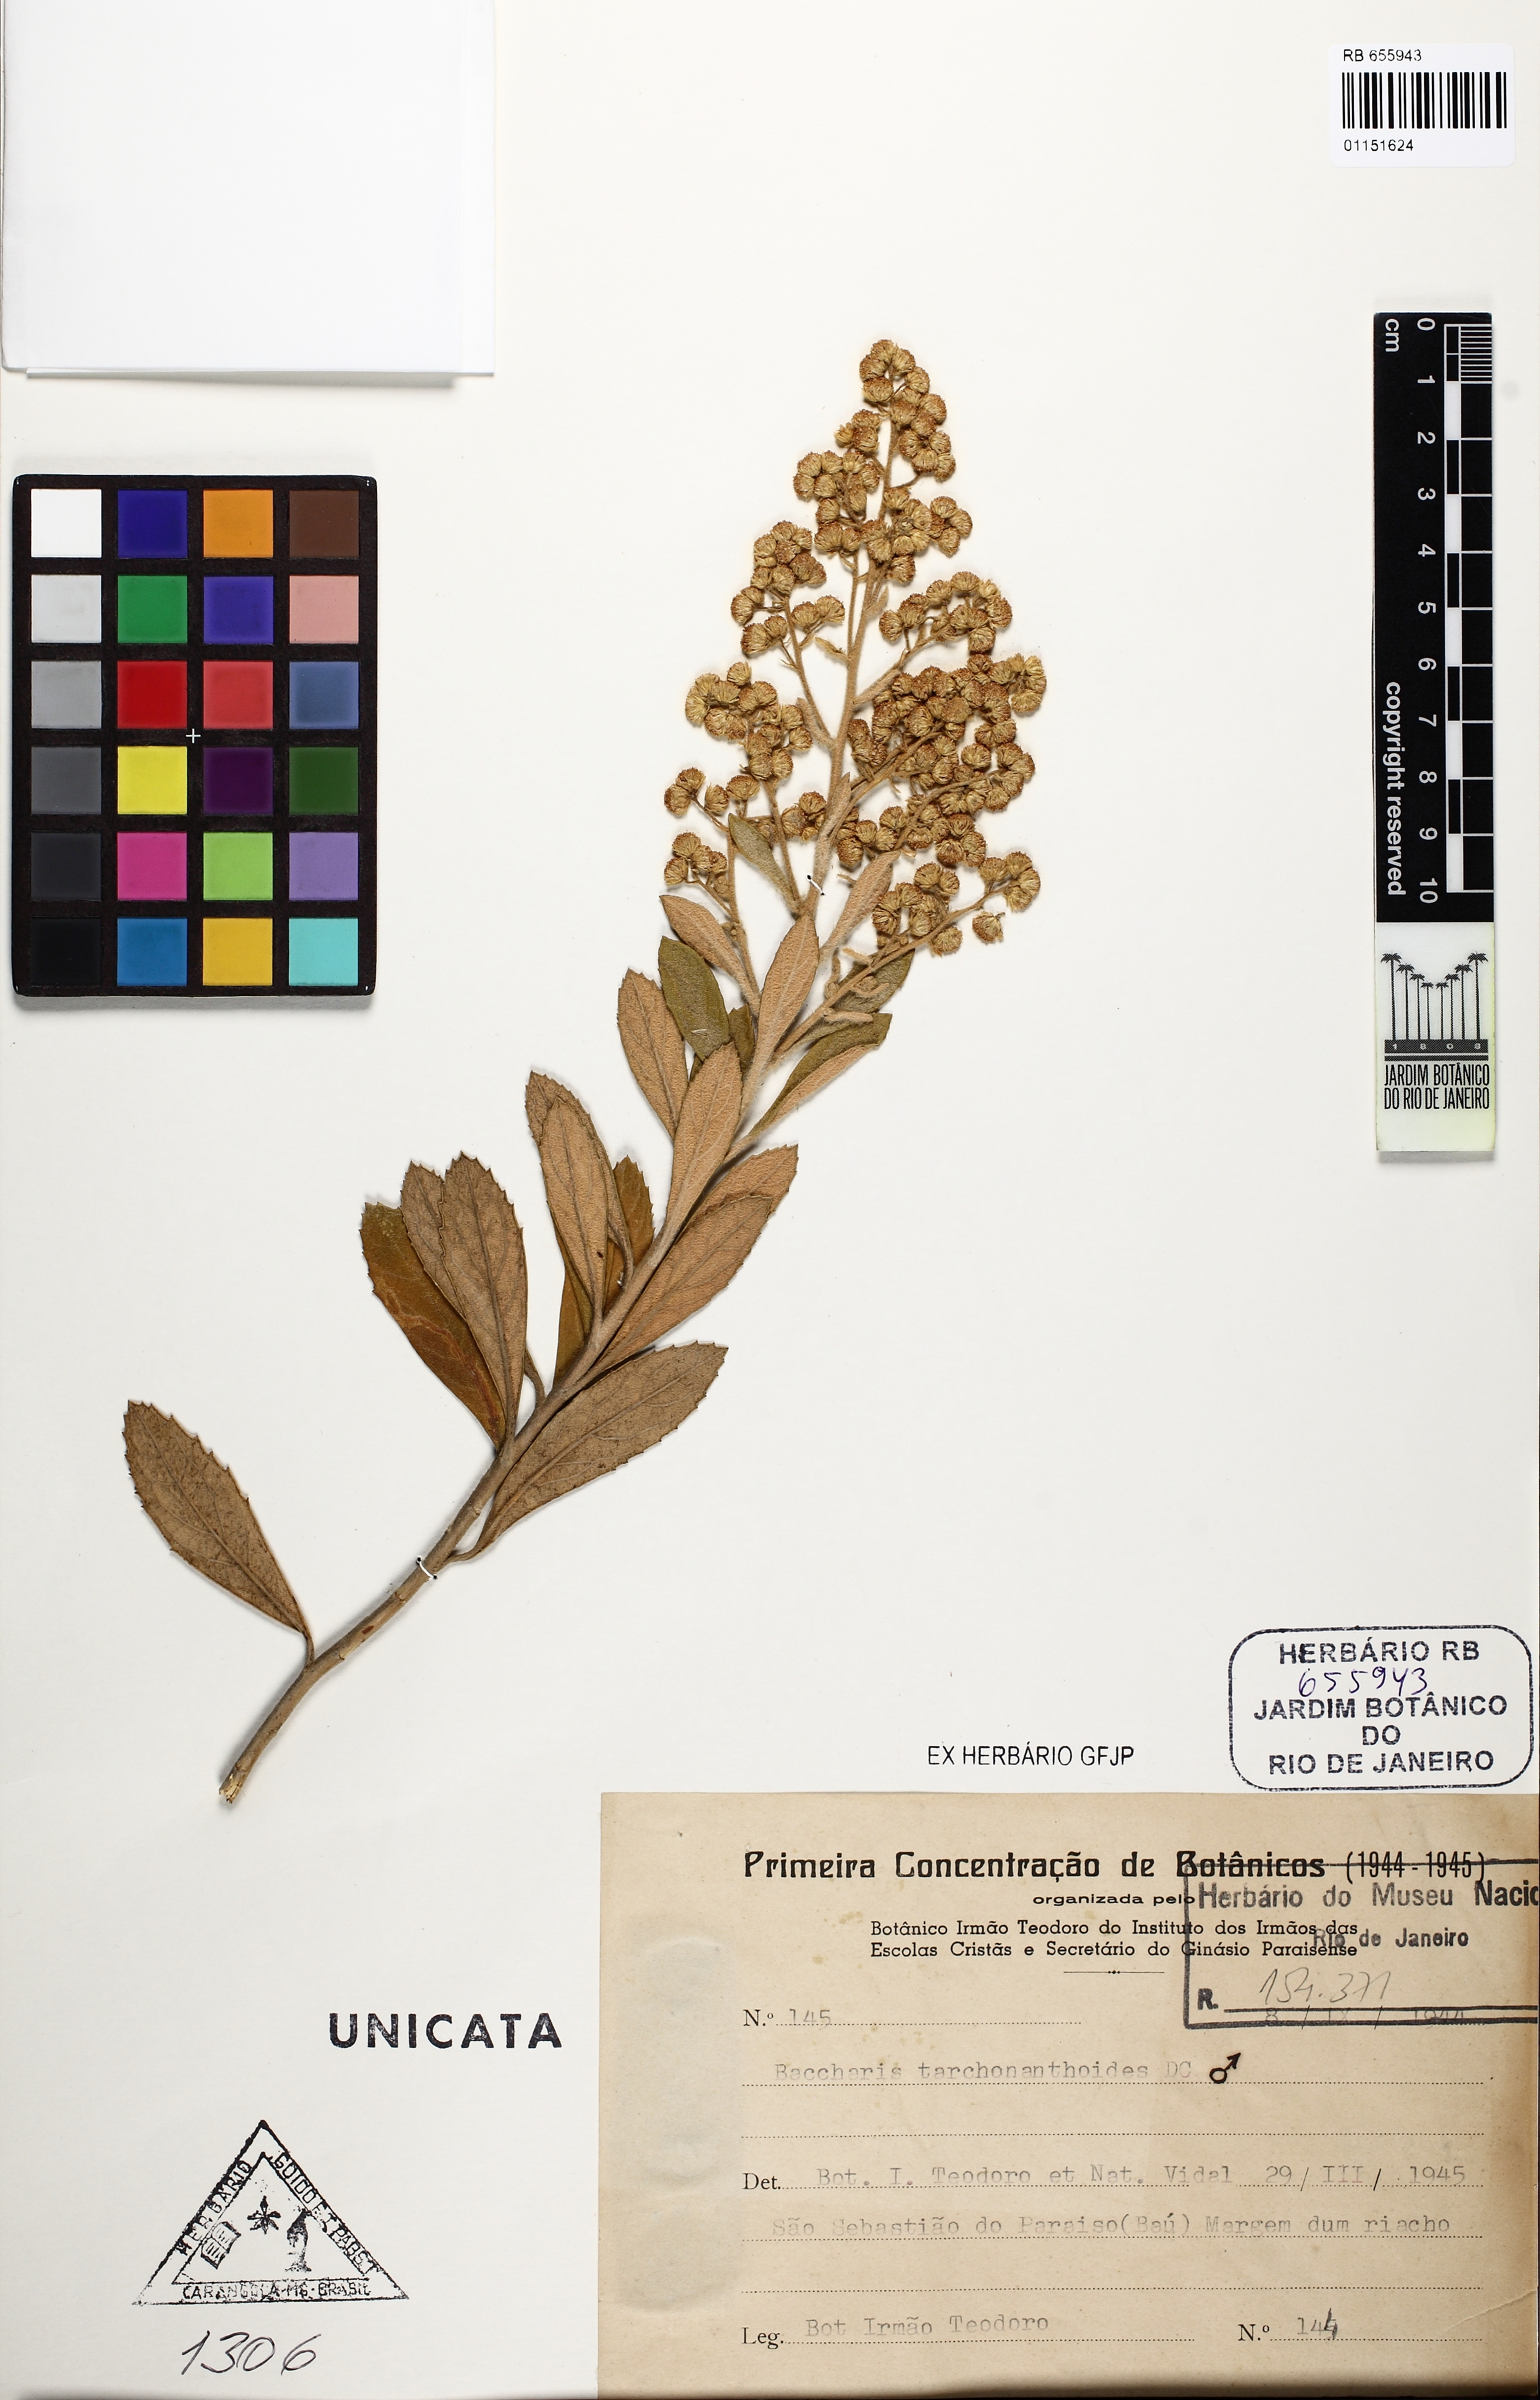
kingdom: Plantae
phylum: Tracheophyta
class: Magnoliopsida
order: Asterales
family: Asteraceae
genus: Baccharis
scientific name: Baccharis tarchonanthoides
